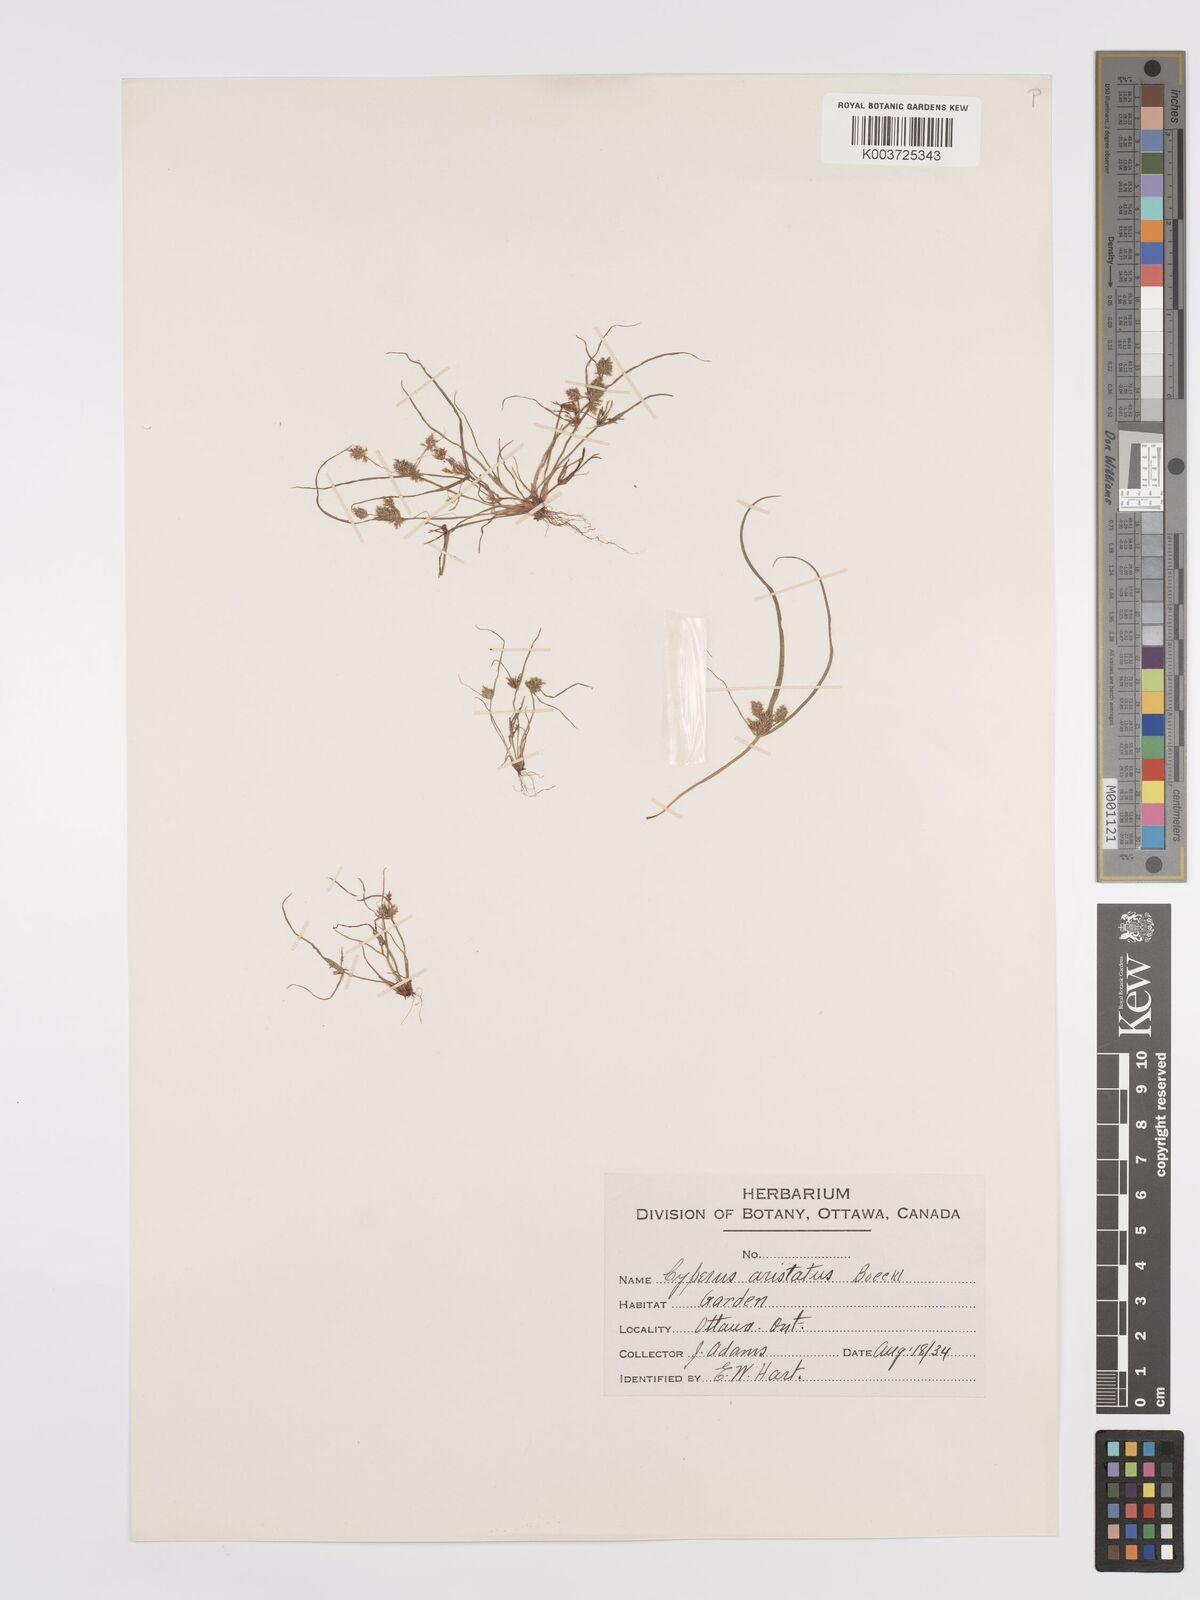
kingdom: Plantae
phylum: Tracheophyta
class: Liliopsida
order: Poales
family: Cyperaceae
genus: Cyperus
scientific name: Cyperus squarrosus
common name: Awned cyperus
